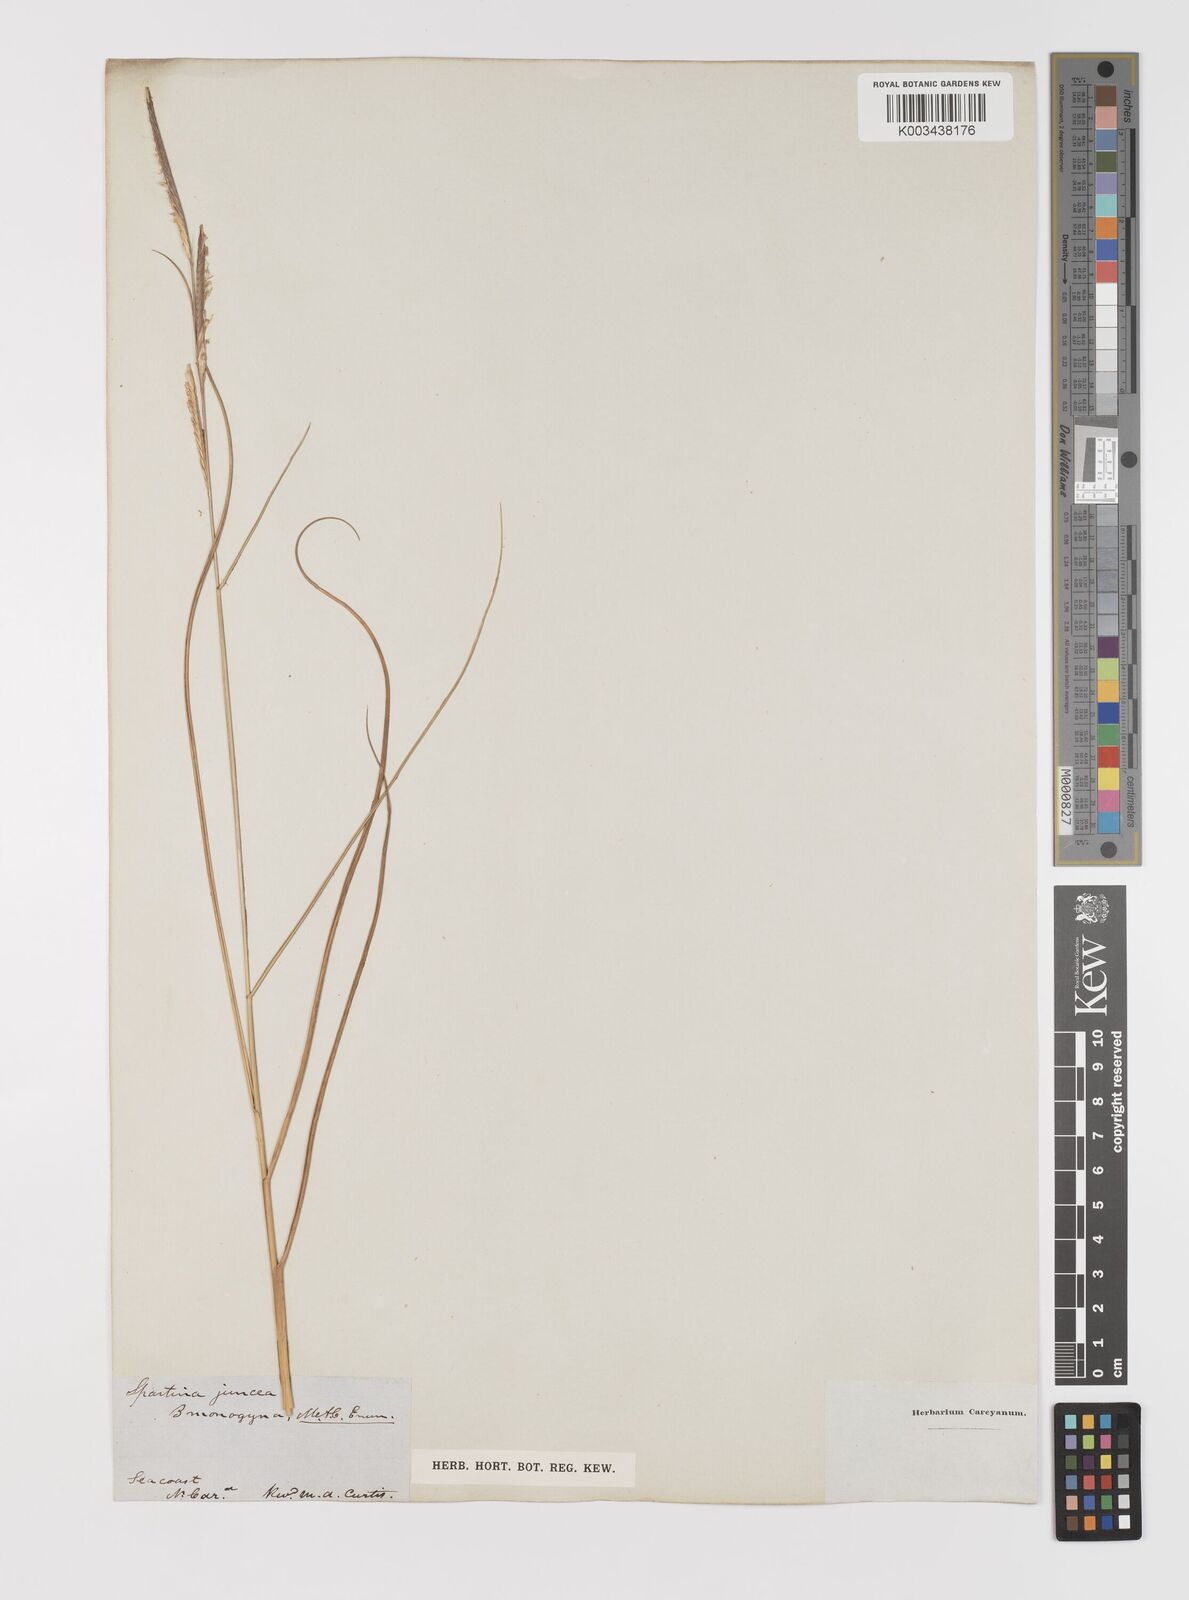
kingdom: Animalia
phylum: Mollusca
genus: Spartina
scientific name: Spartina
